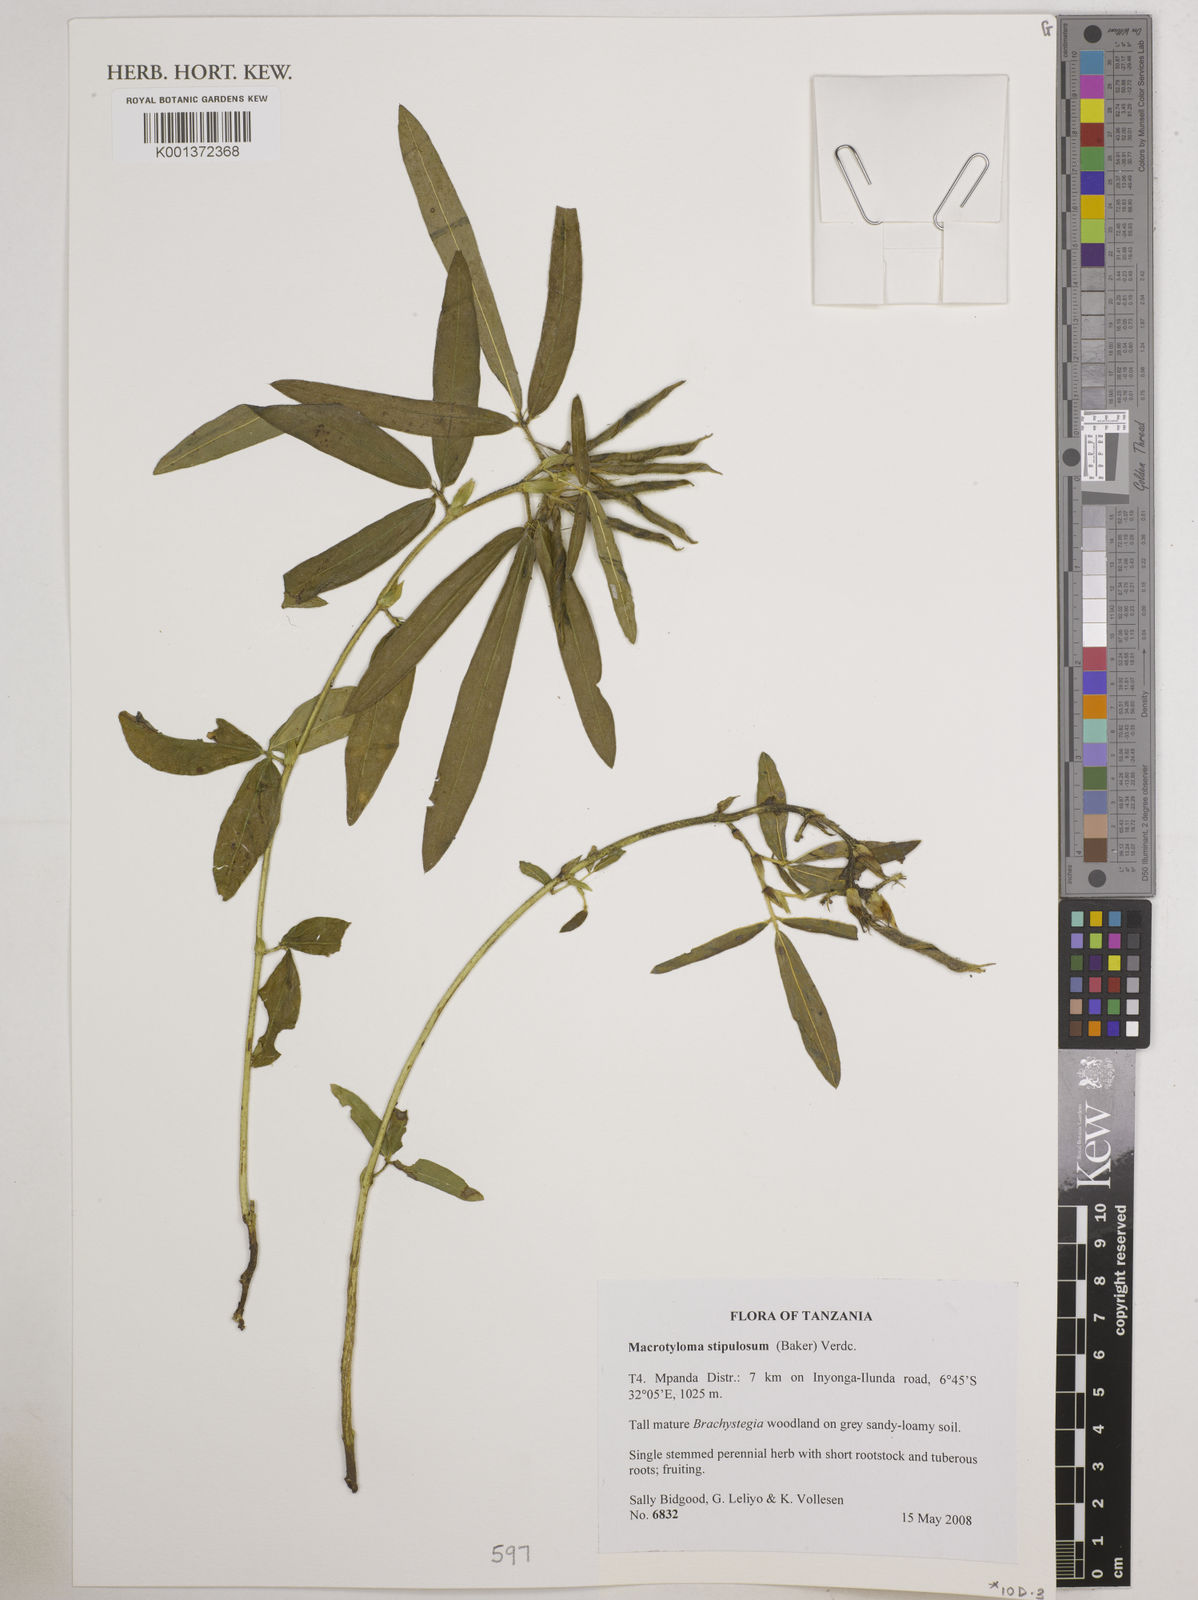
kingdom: Plantae
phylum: Tracheophyta
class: Magnoliopsida
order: Fabales
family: Fabaceae
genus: Macrotyloma
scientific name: Macrotyloma stipulosum
